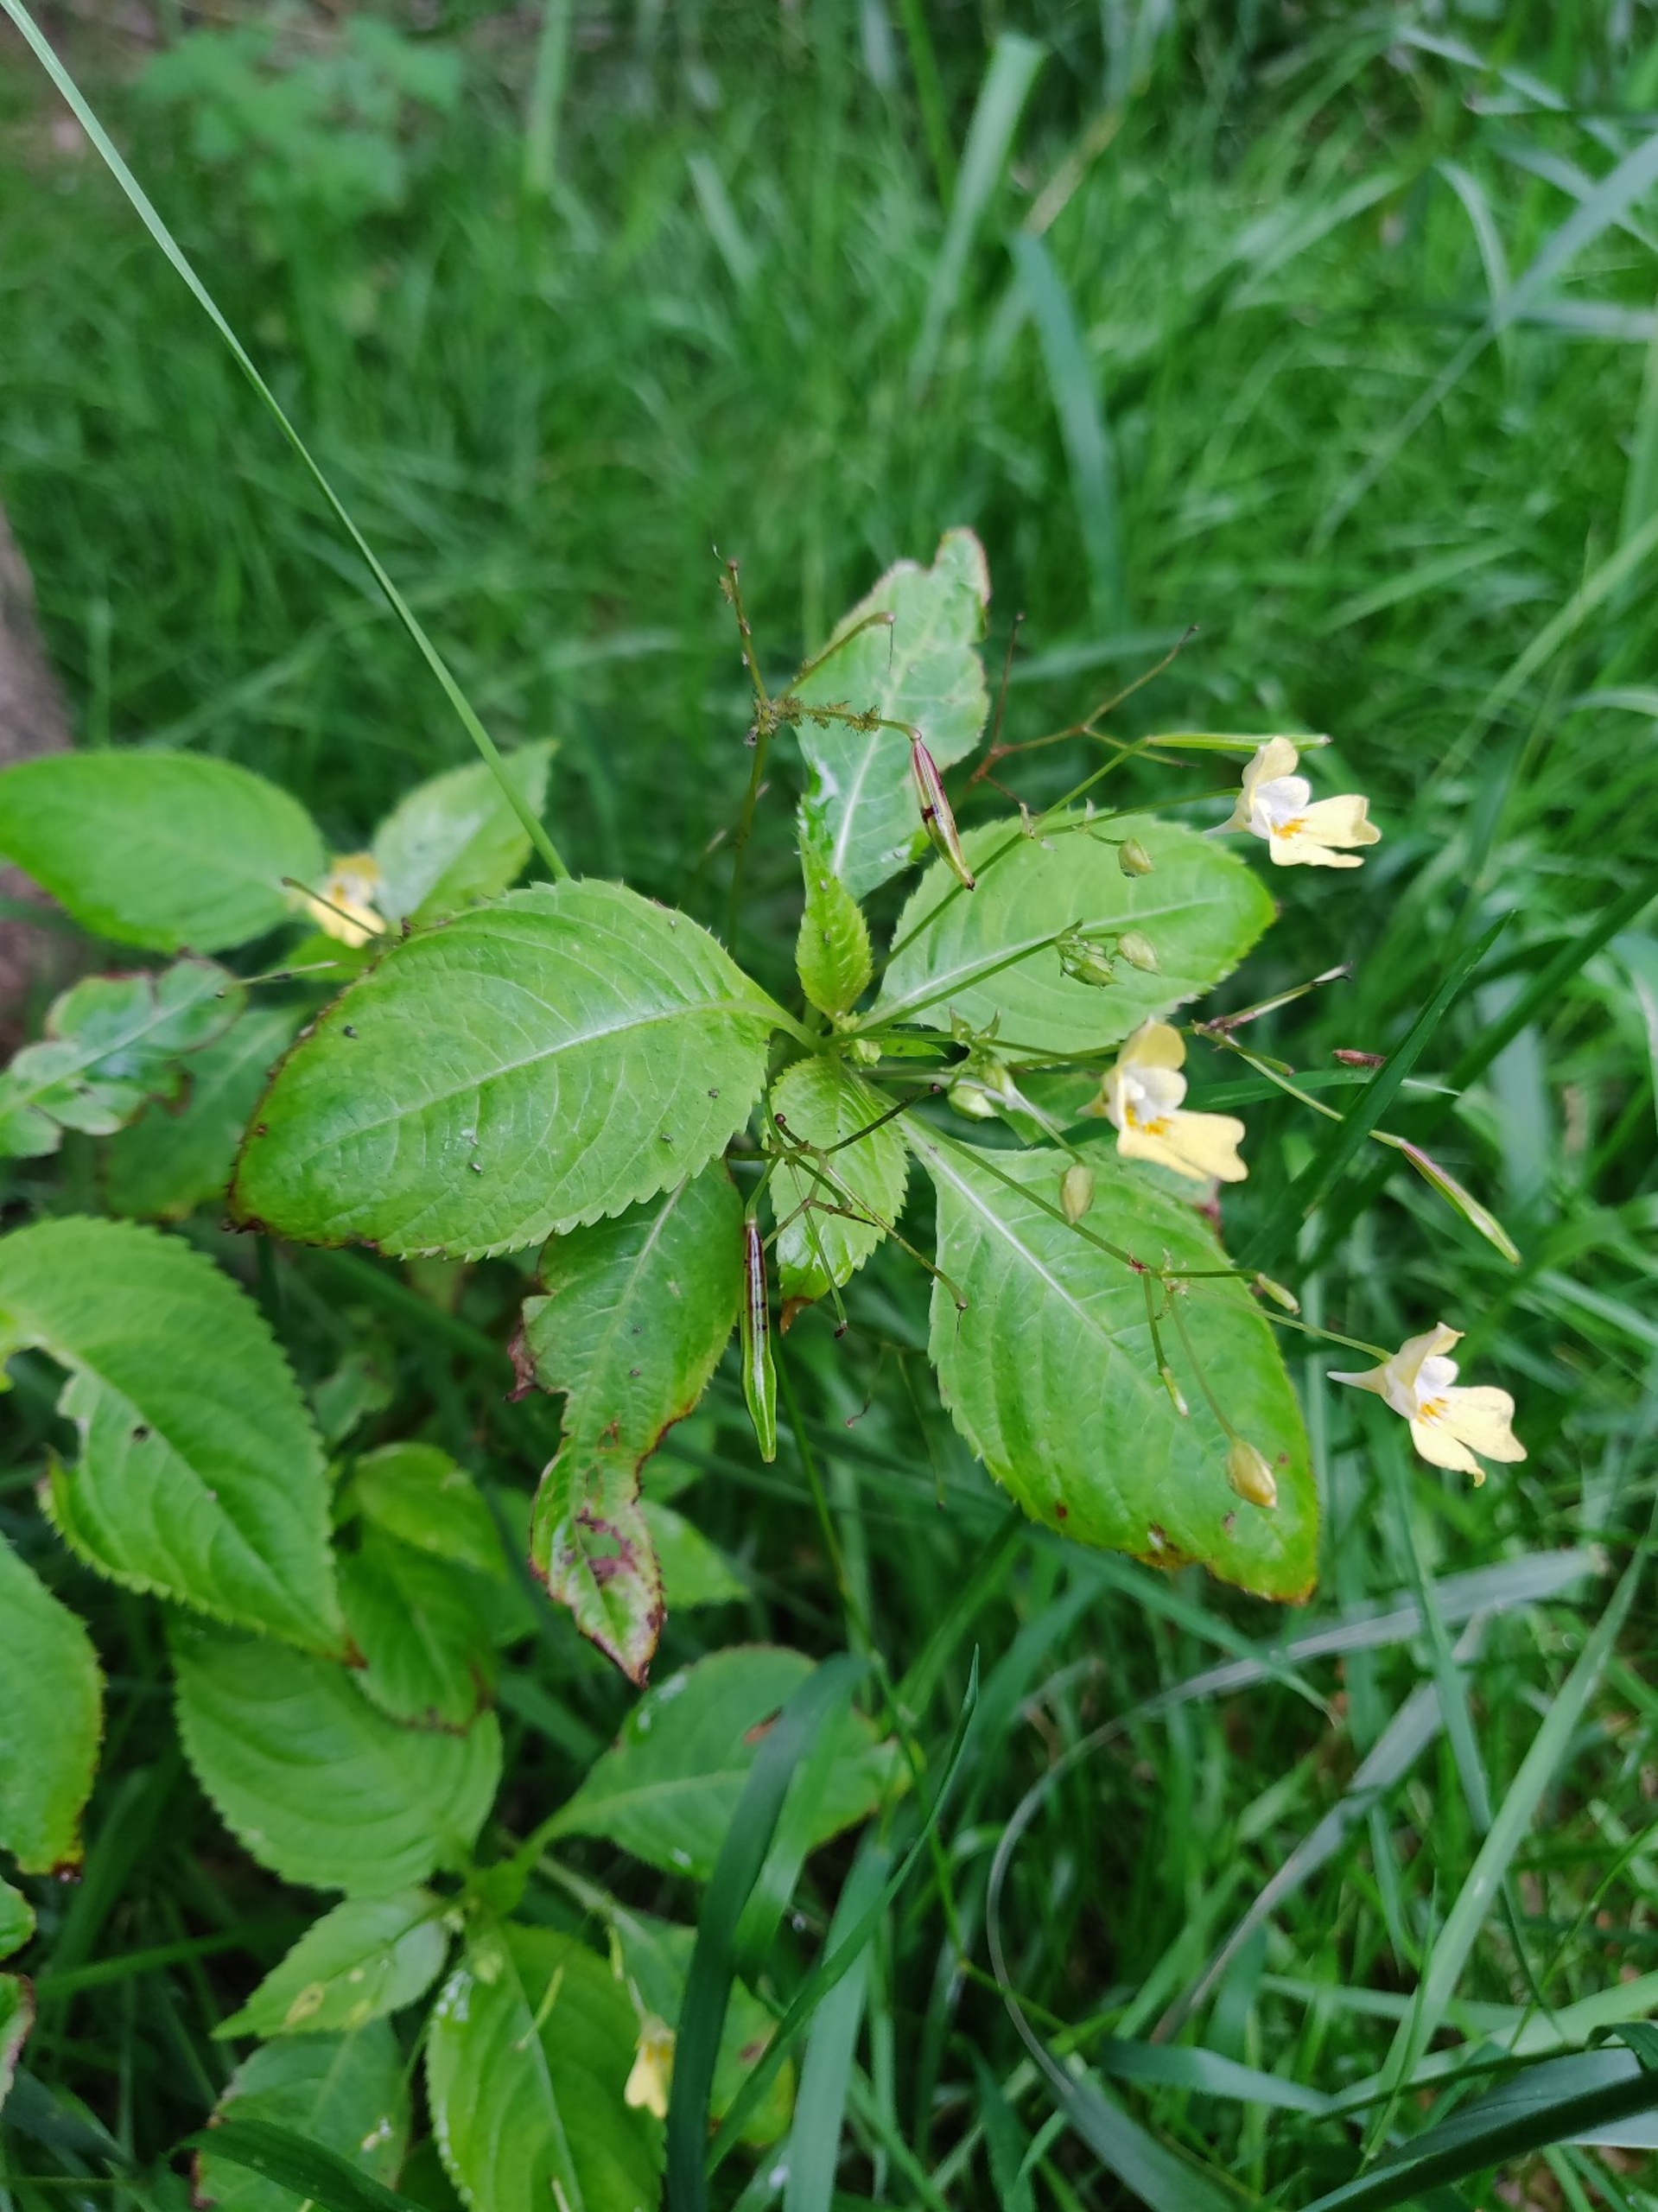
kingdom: Plantae
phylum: Tracheophyta
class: Magnoliopsida
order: Ericales
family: Balsaminaceae
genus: Impatiens
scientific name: Impatiens parviflora
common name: Småblomstret balsamin
